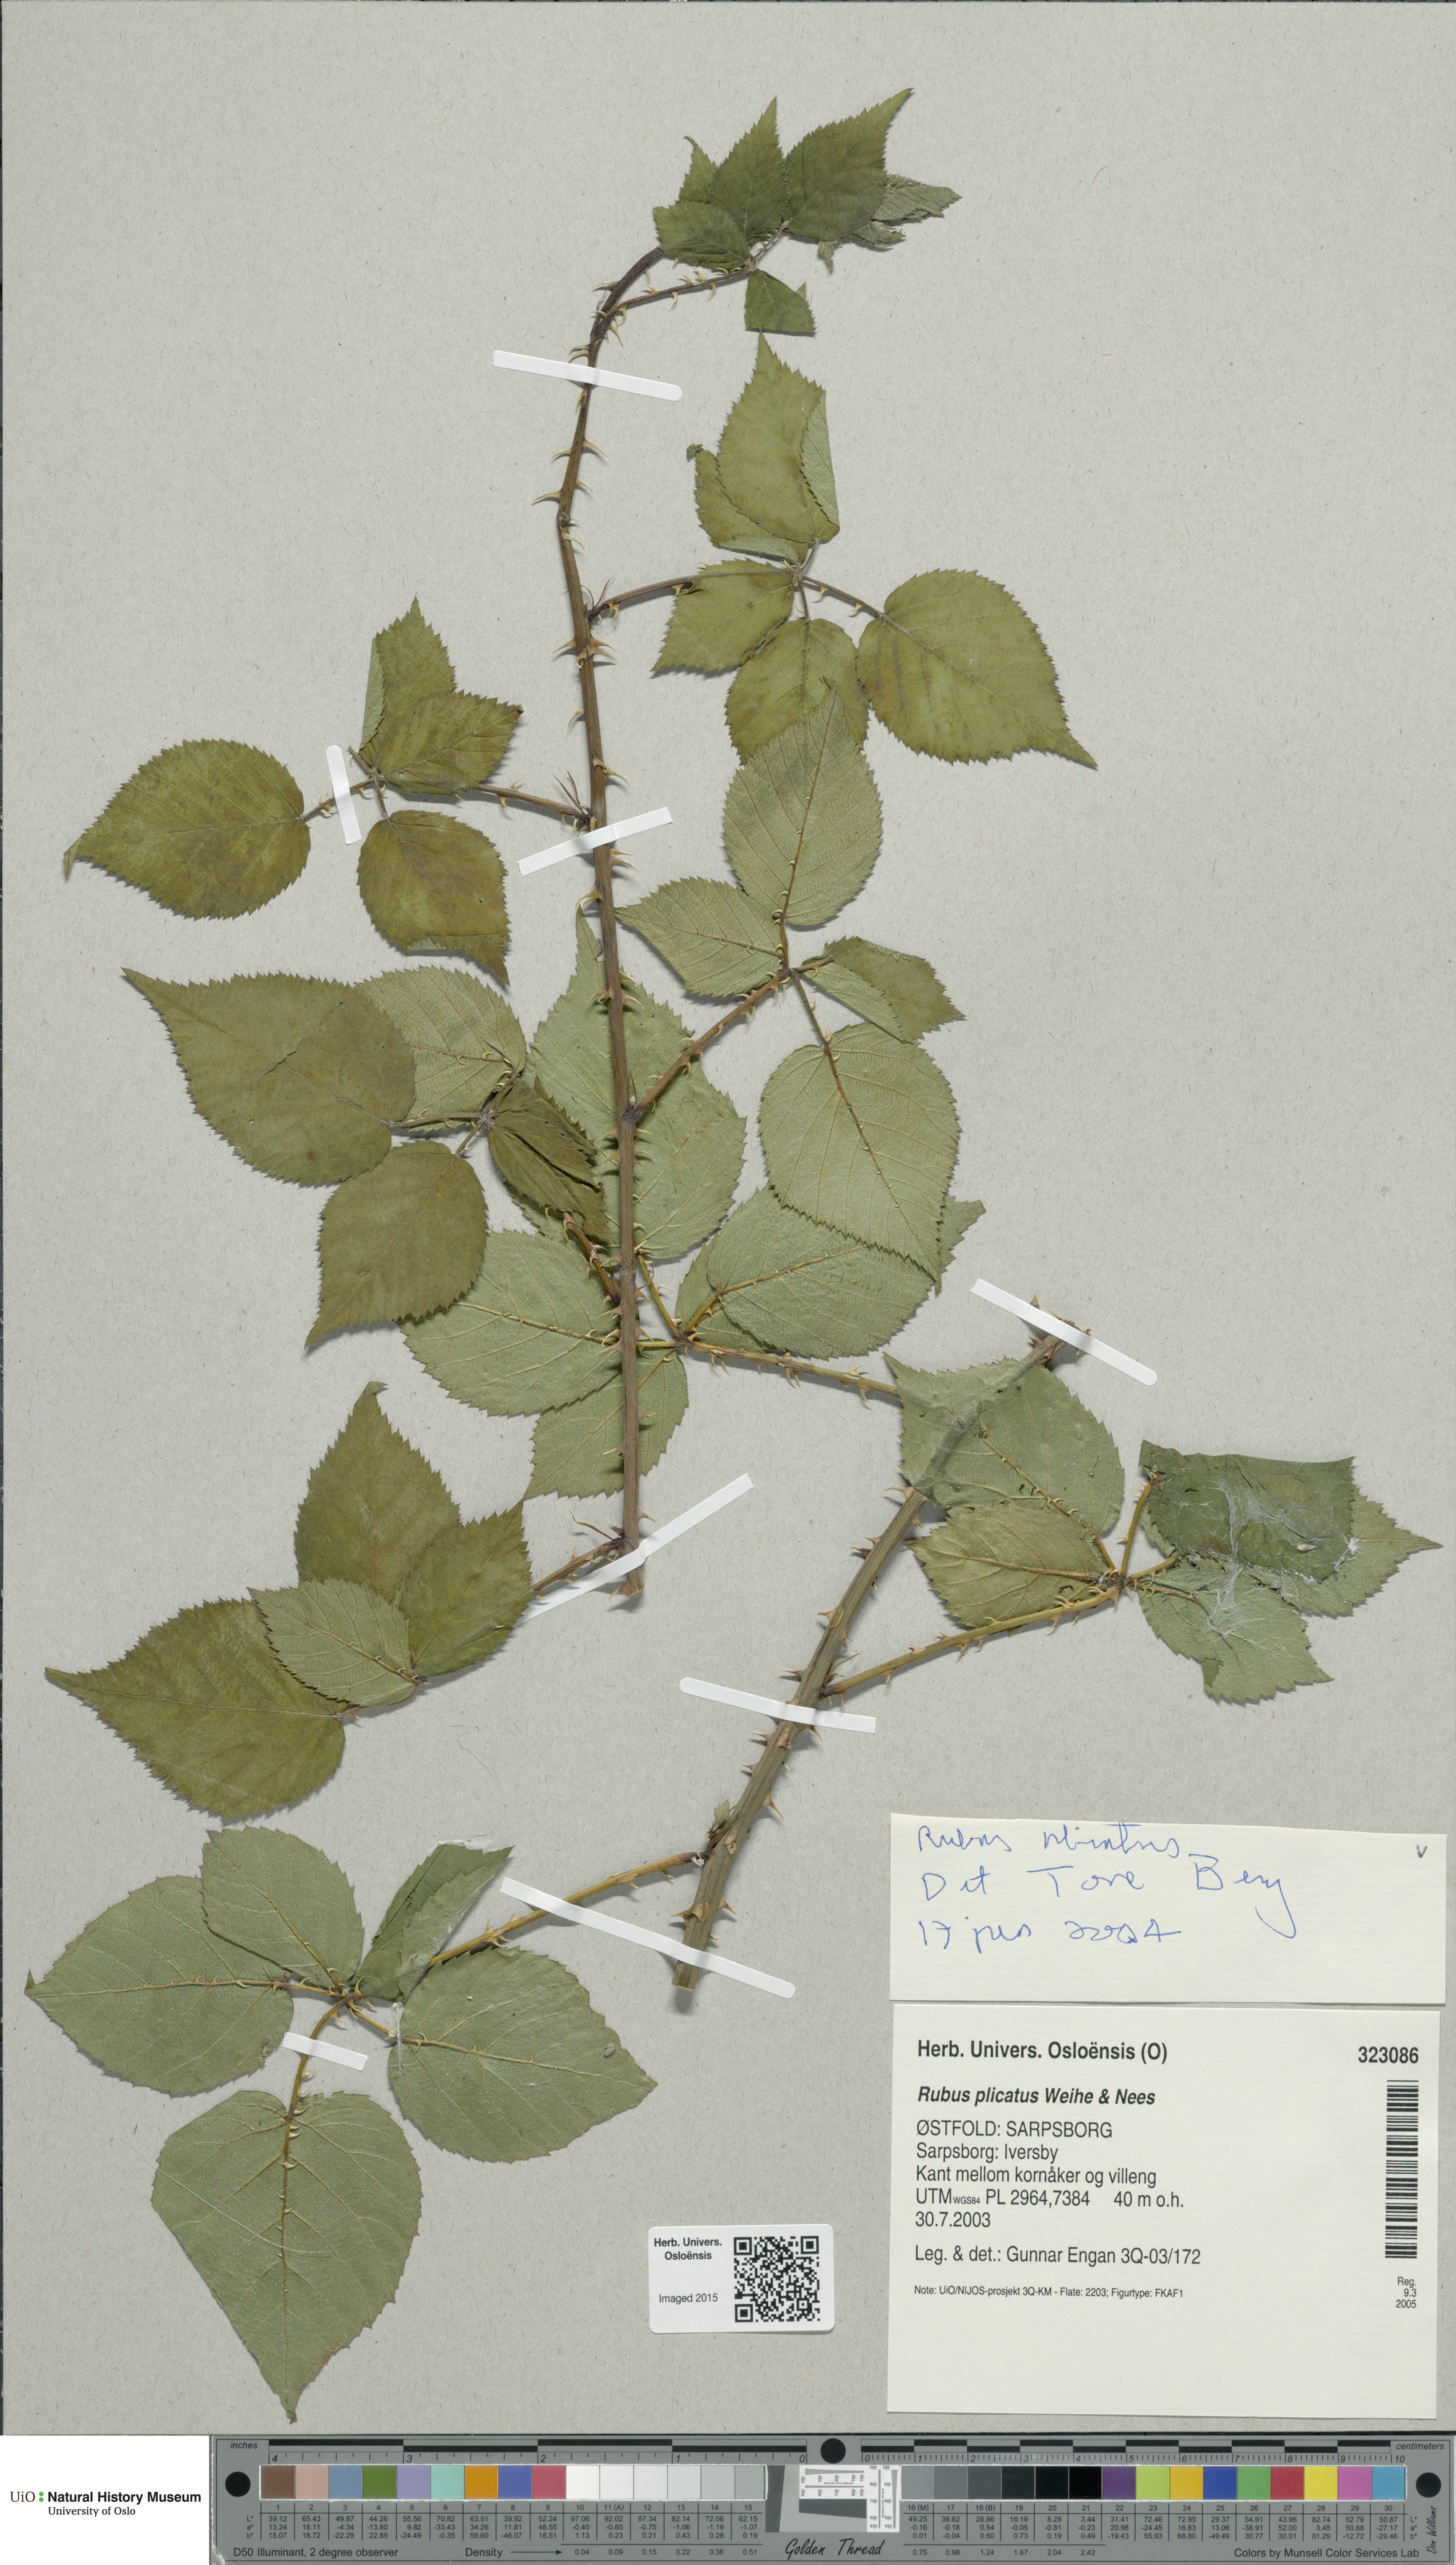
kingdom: Plantae
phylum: Tracheophyta
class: Magnoliopsida
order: Rosales
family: Rosaceae
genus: Rubus
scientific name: Rubus fruticosus
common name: Blackberry, bramble
